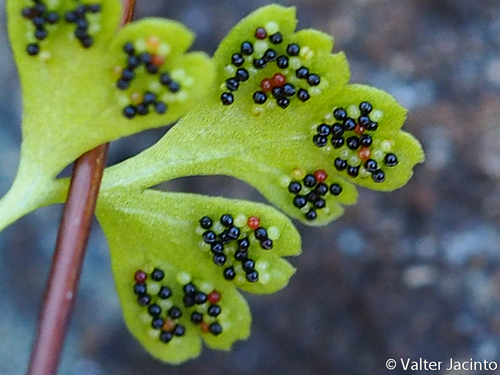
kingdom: Plantae
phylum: Tracheophyta
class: Polypodiopsida
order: Polypodiales
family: Pteridaceae
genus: Anogramma
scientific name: Anogramma leptophylla
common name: Jersey fern
